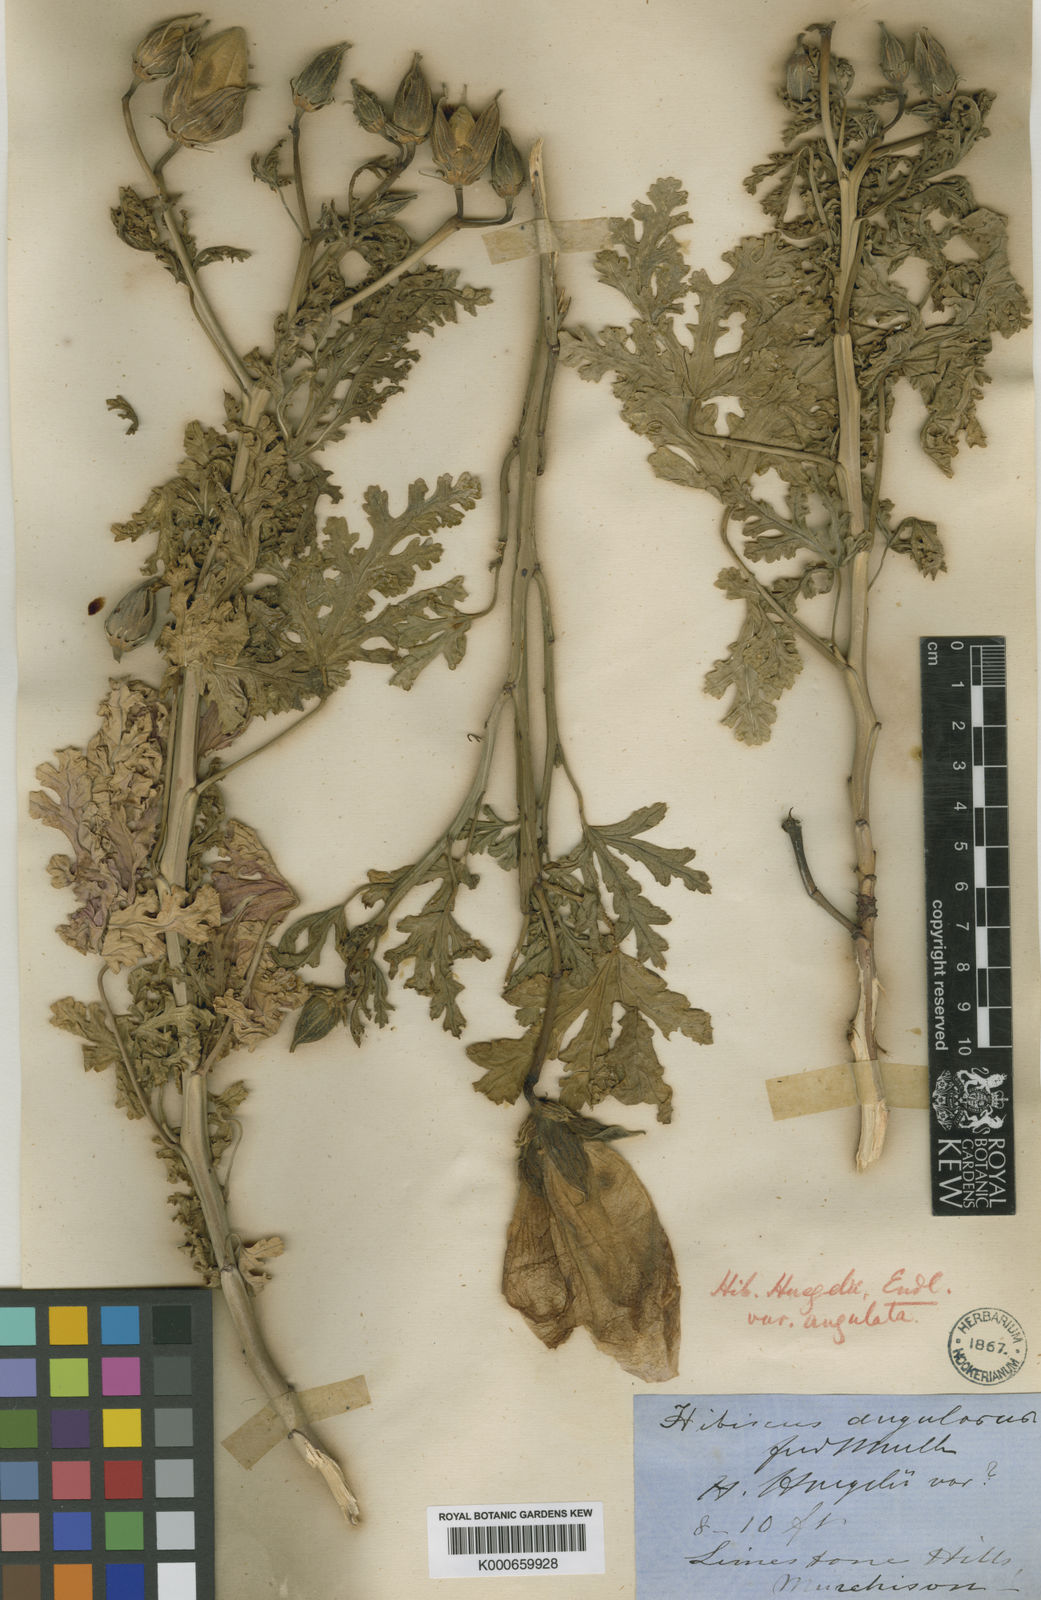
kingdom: Plantae
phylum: Tracheophyta
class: Magnoliopsida
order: Malvales
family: Malvaceae
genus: Hibiscus
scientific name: Hibiscus huegelii
